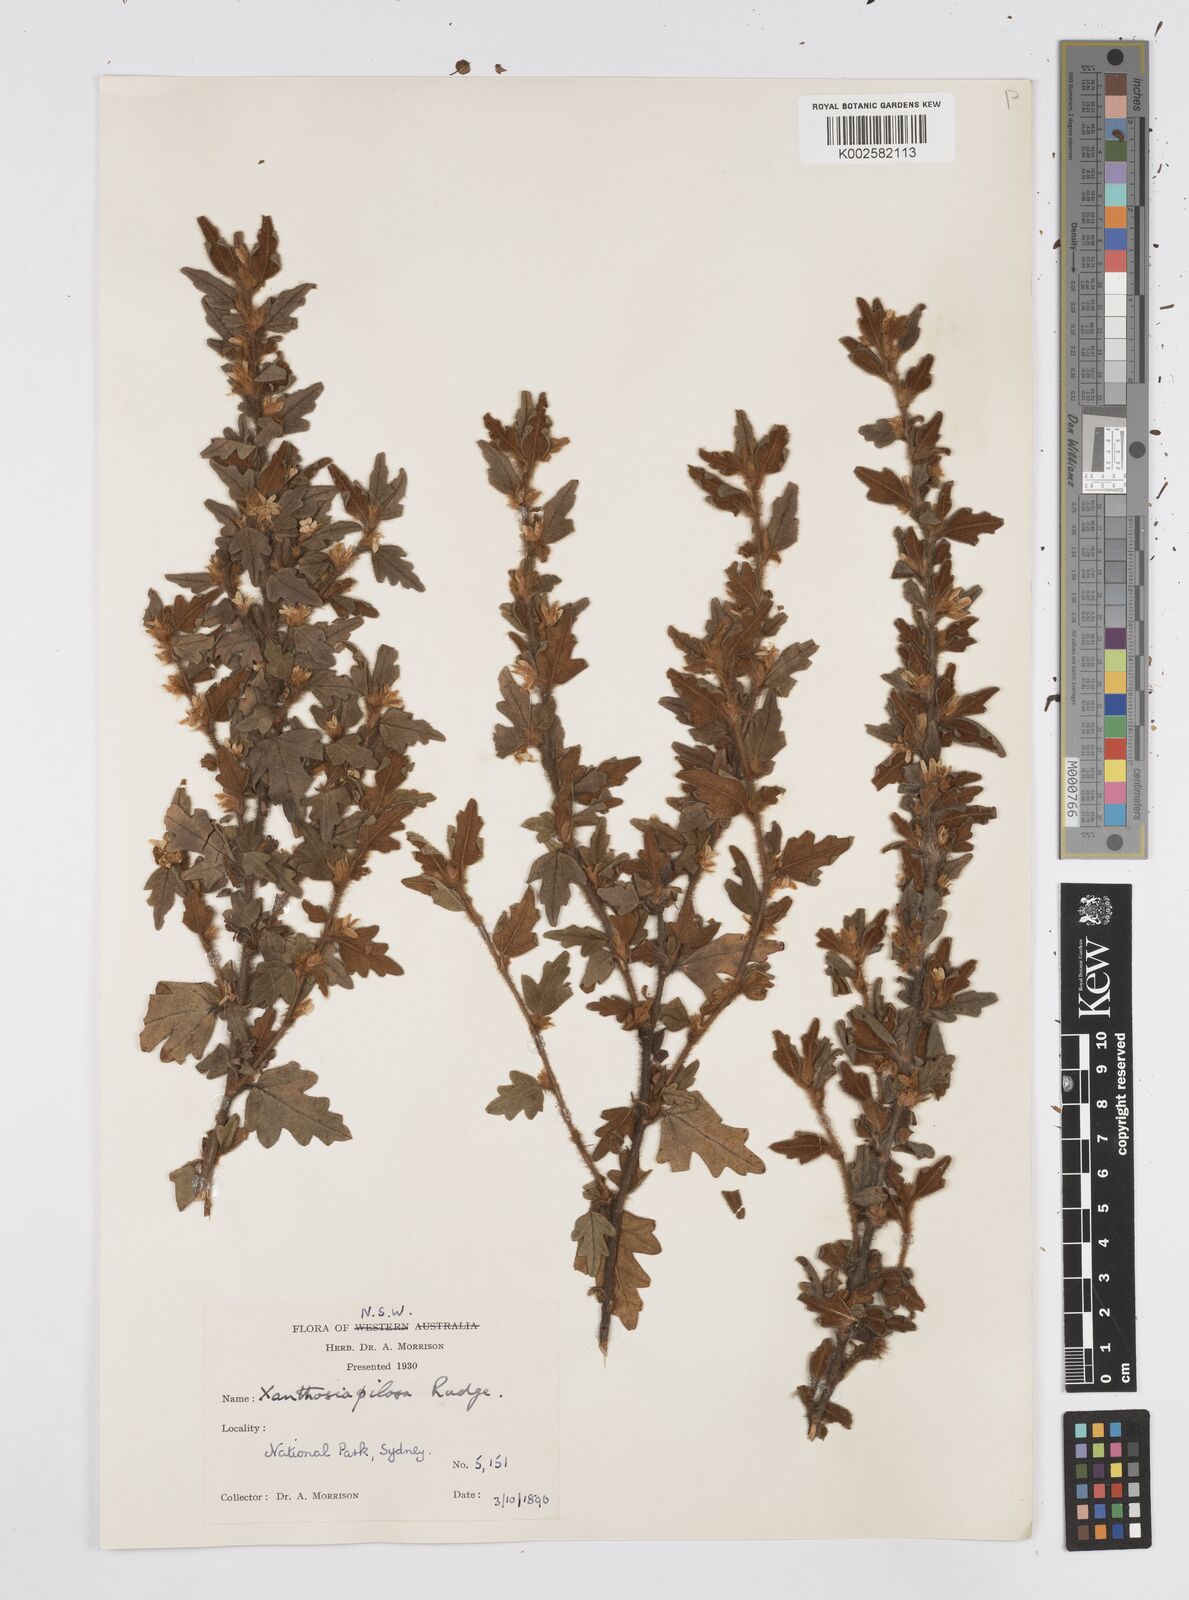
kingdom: Plantae
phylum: Tracheophyta
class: Magnoliopsida
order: Apiales
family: Apiaceae
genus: Xanthosia
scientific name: Xanthosia pilosa
